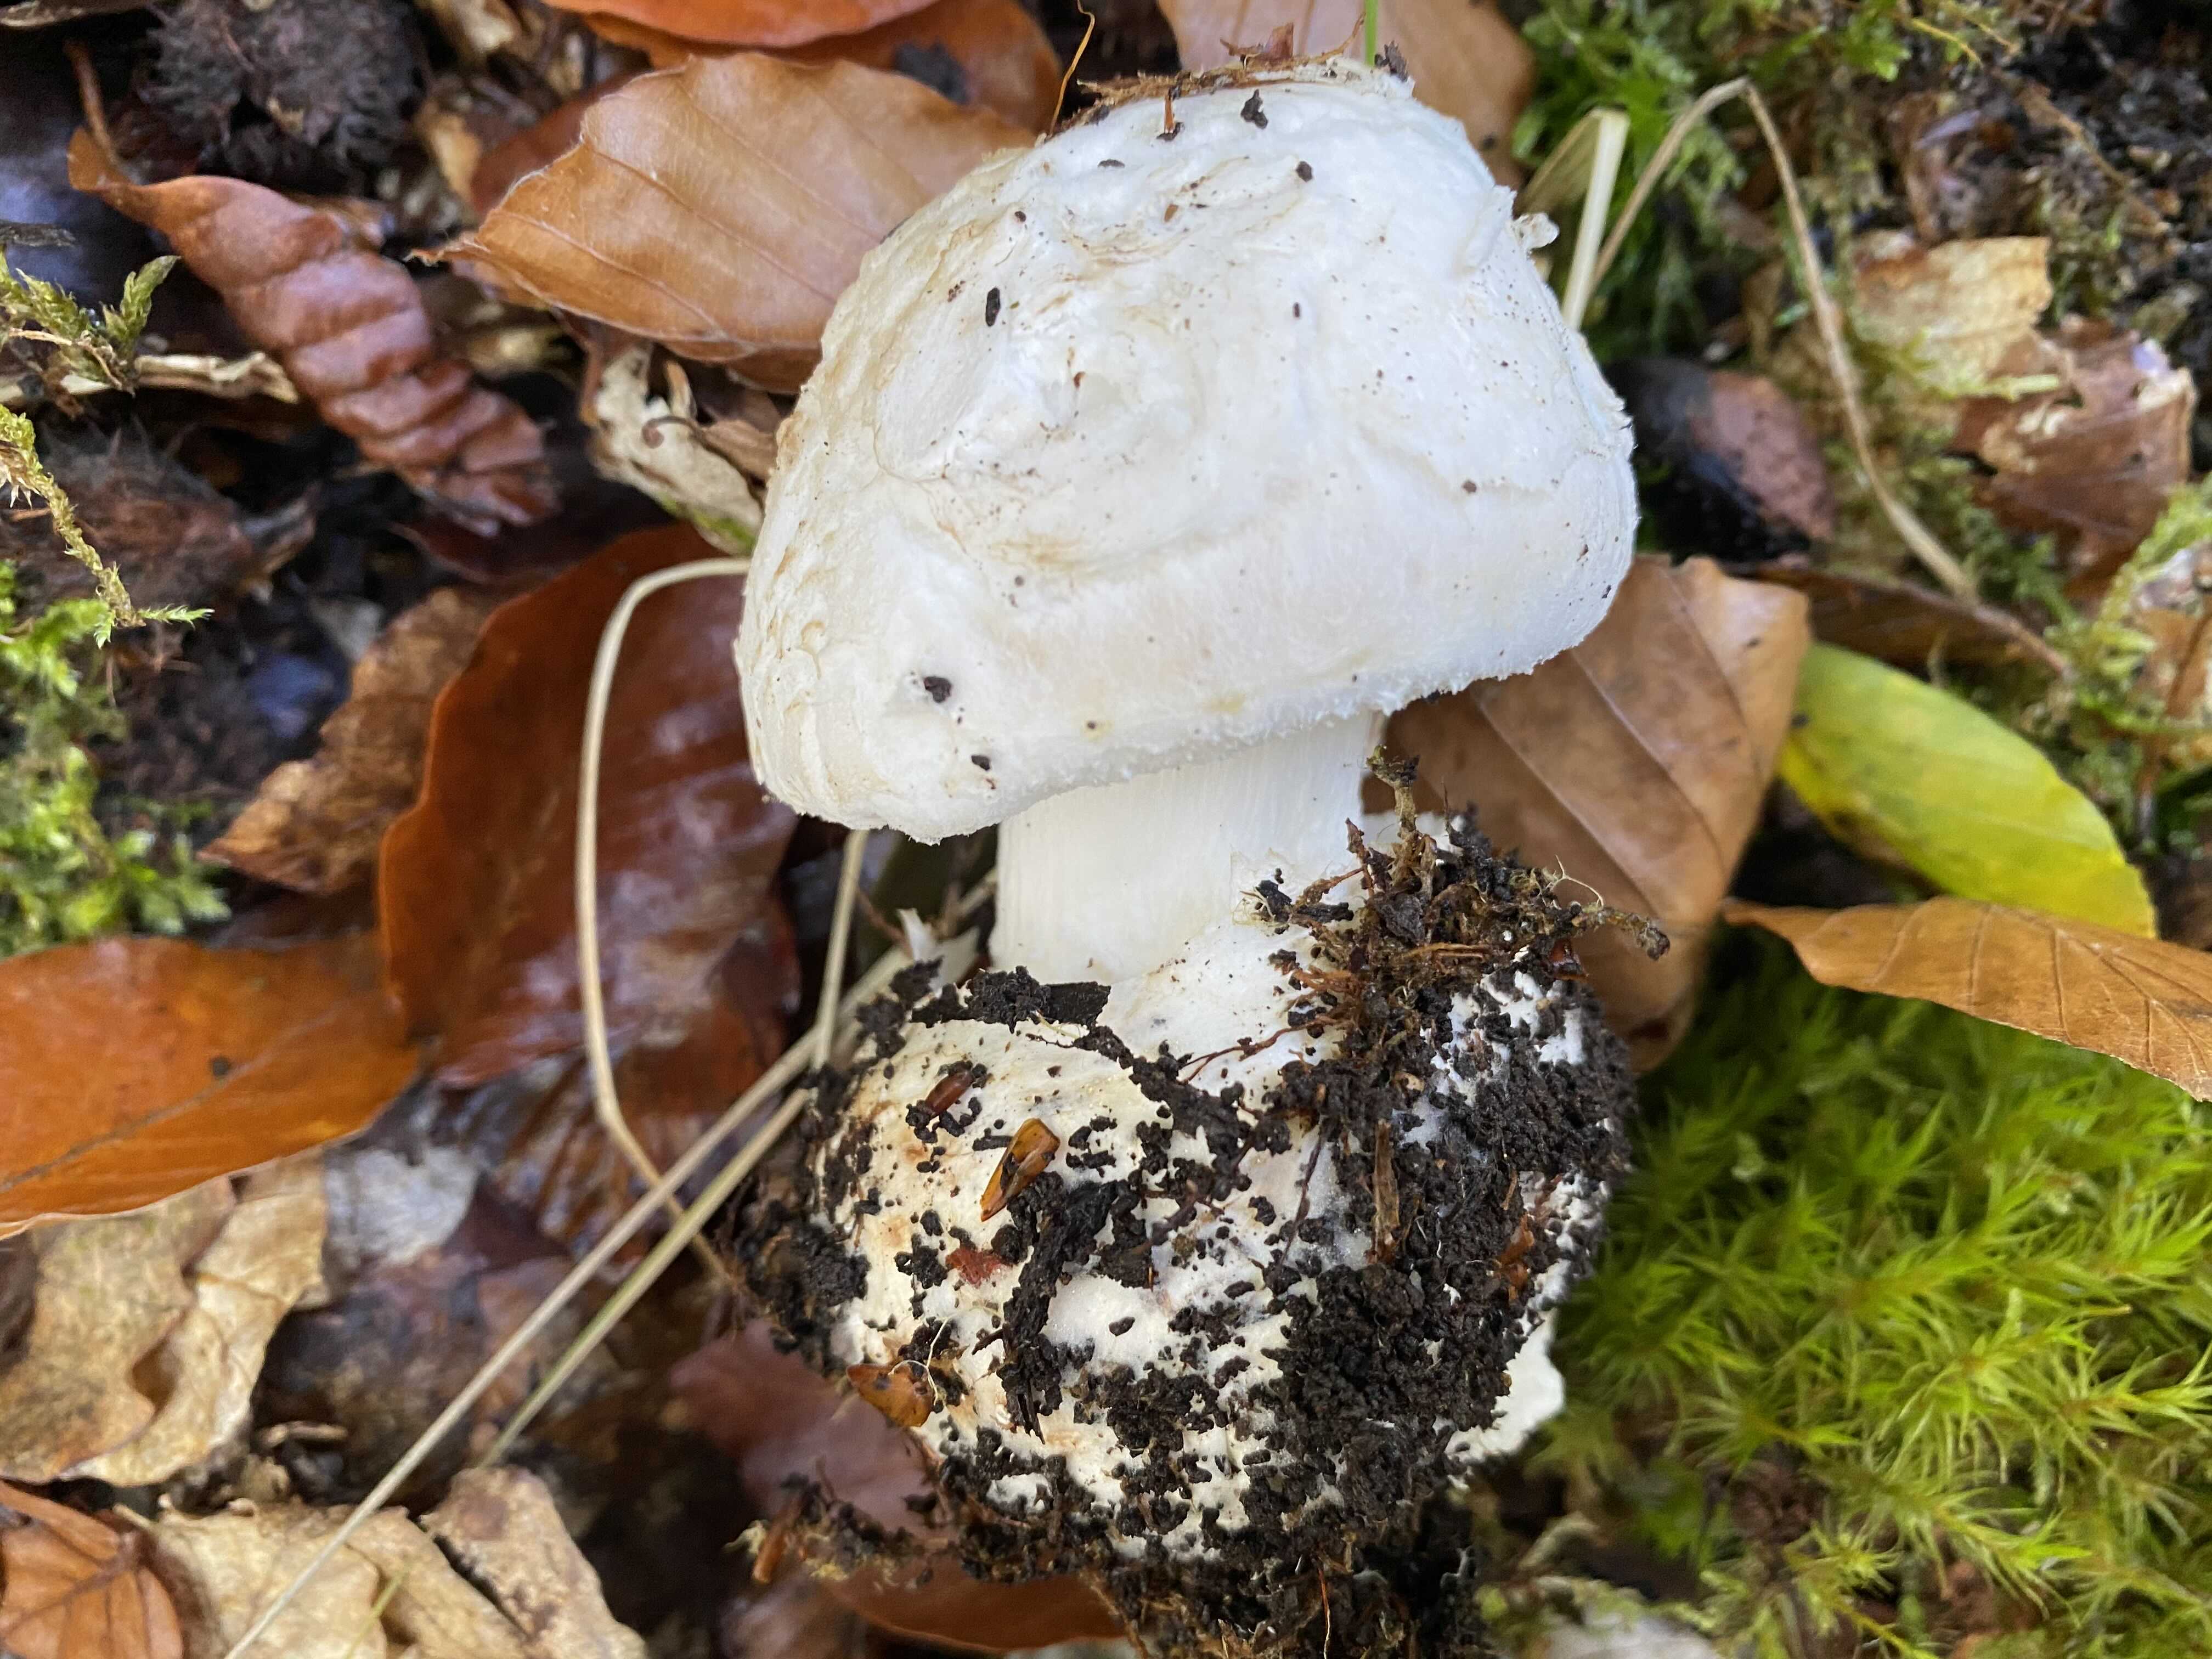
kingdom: Fungi
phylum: Basidiomycota
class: Agaricomycetes
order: Agaricales
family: Amanitaceae
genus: Amanita
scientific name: Amanita citrina
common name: kugleknoldet fluesvamp
